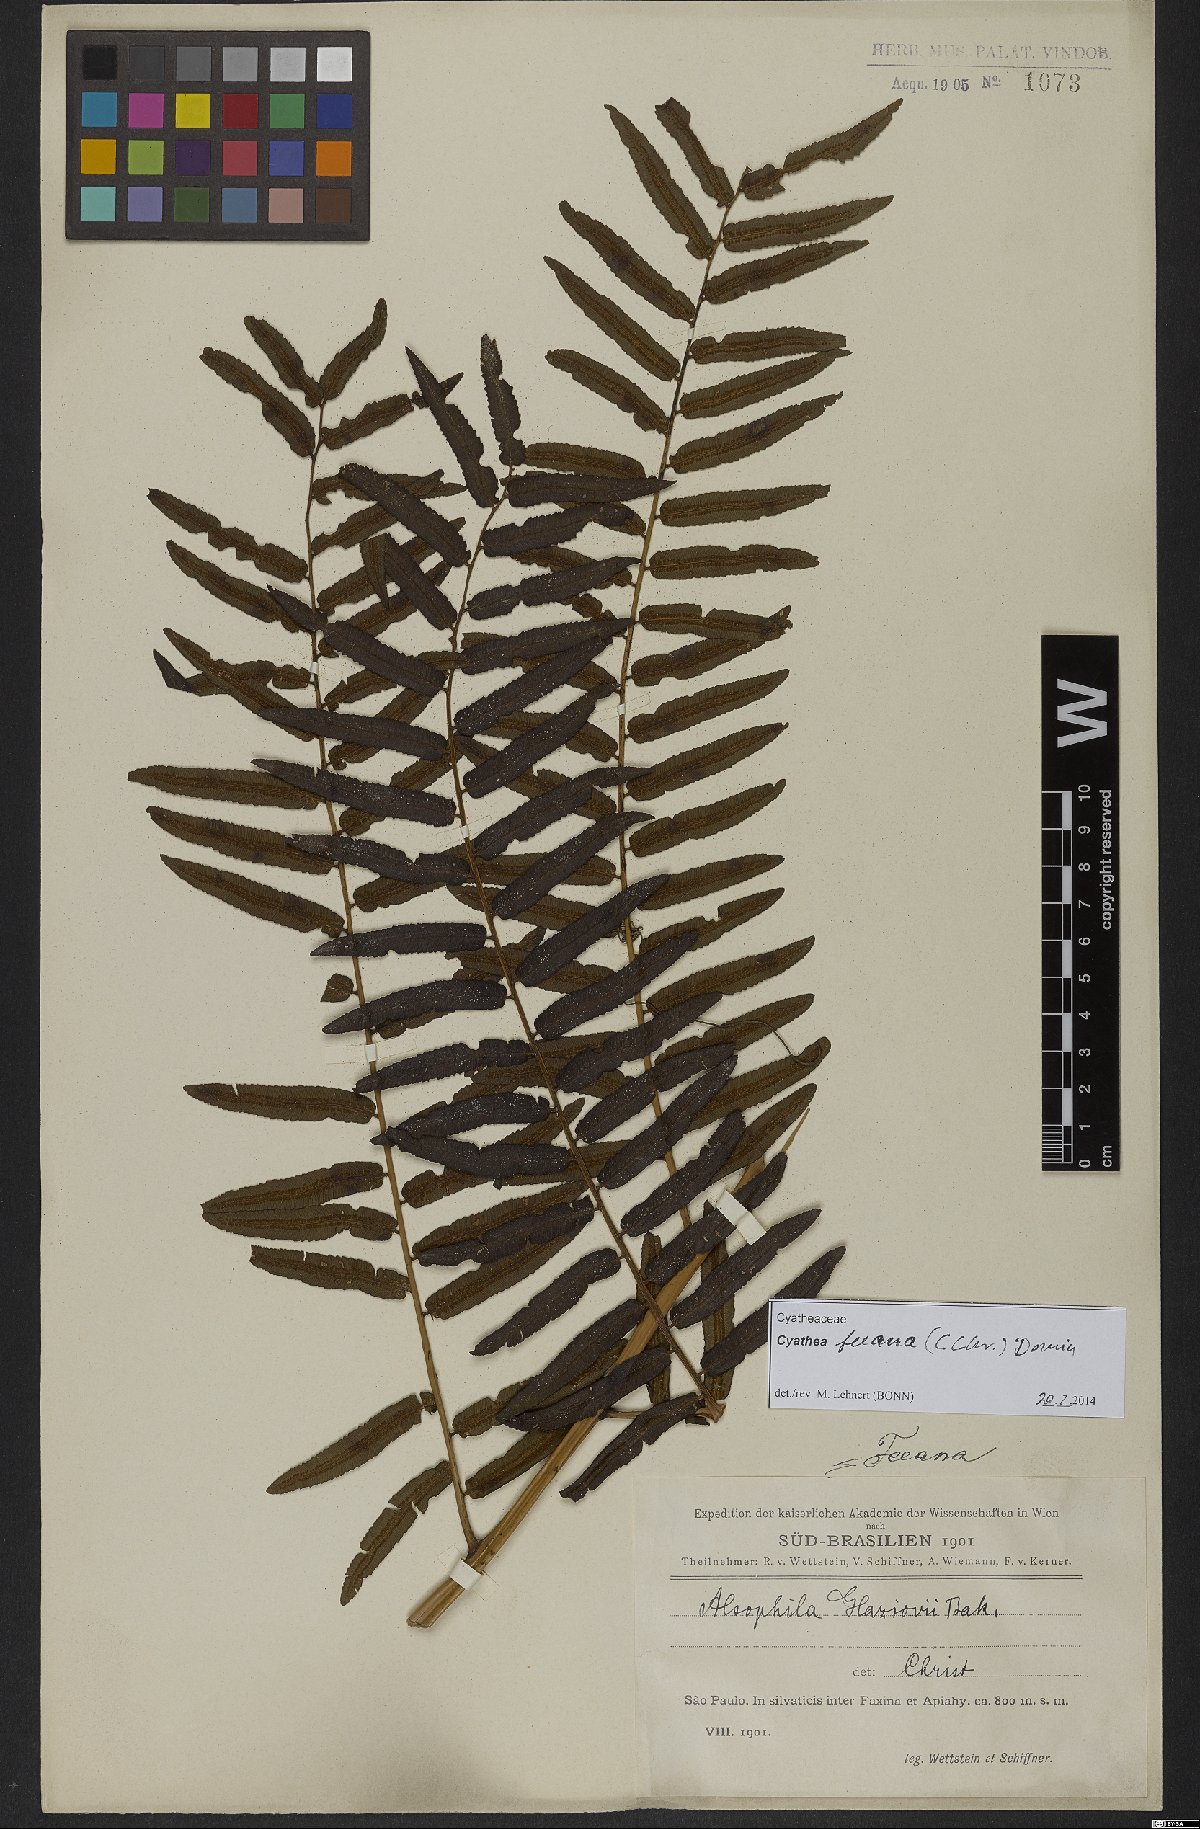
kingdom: Plantae
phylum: Tracheophyta
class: Polypodiopsida
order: Cyatheales
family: Cyatheaceae
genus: Cyathea
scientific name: Cyathea feeana
